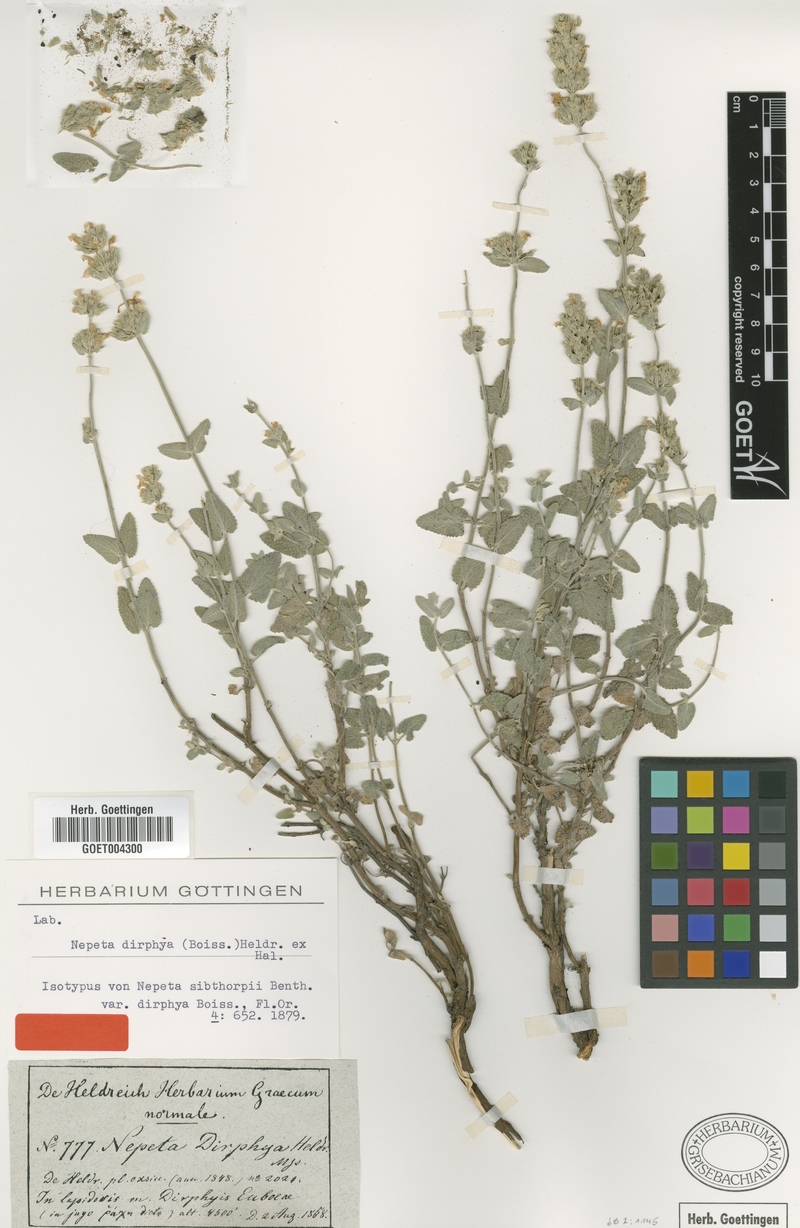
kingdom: Plantae
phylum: Tracheophyta
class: Magnoliopsida
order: Lamiales
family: Lamiaceae
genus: Nepeta
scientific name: Nepeta argolica
